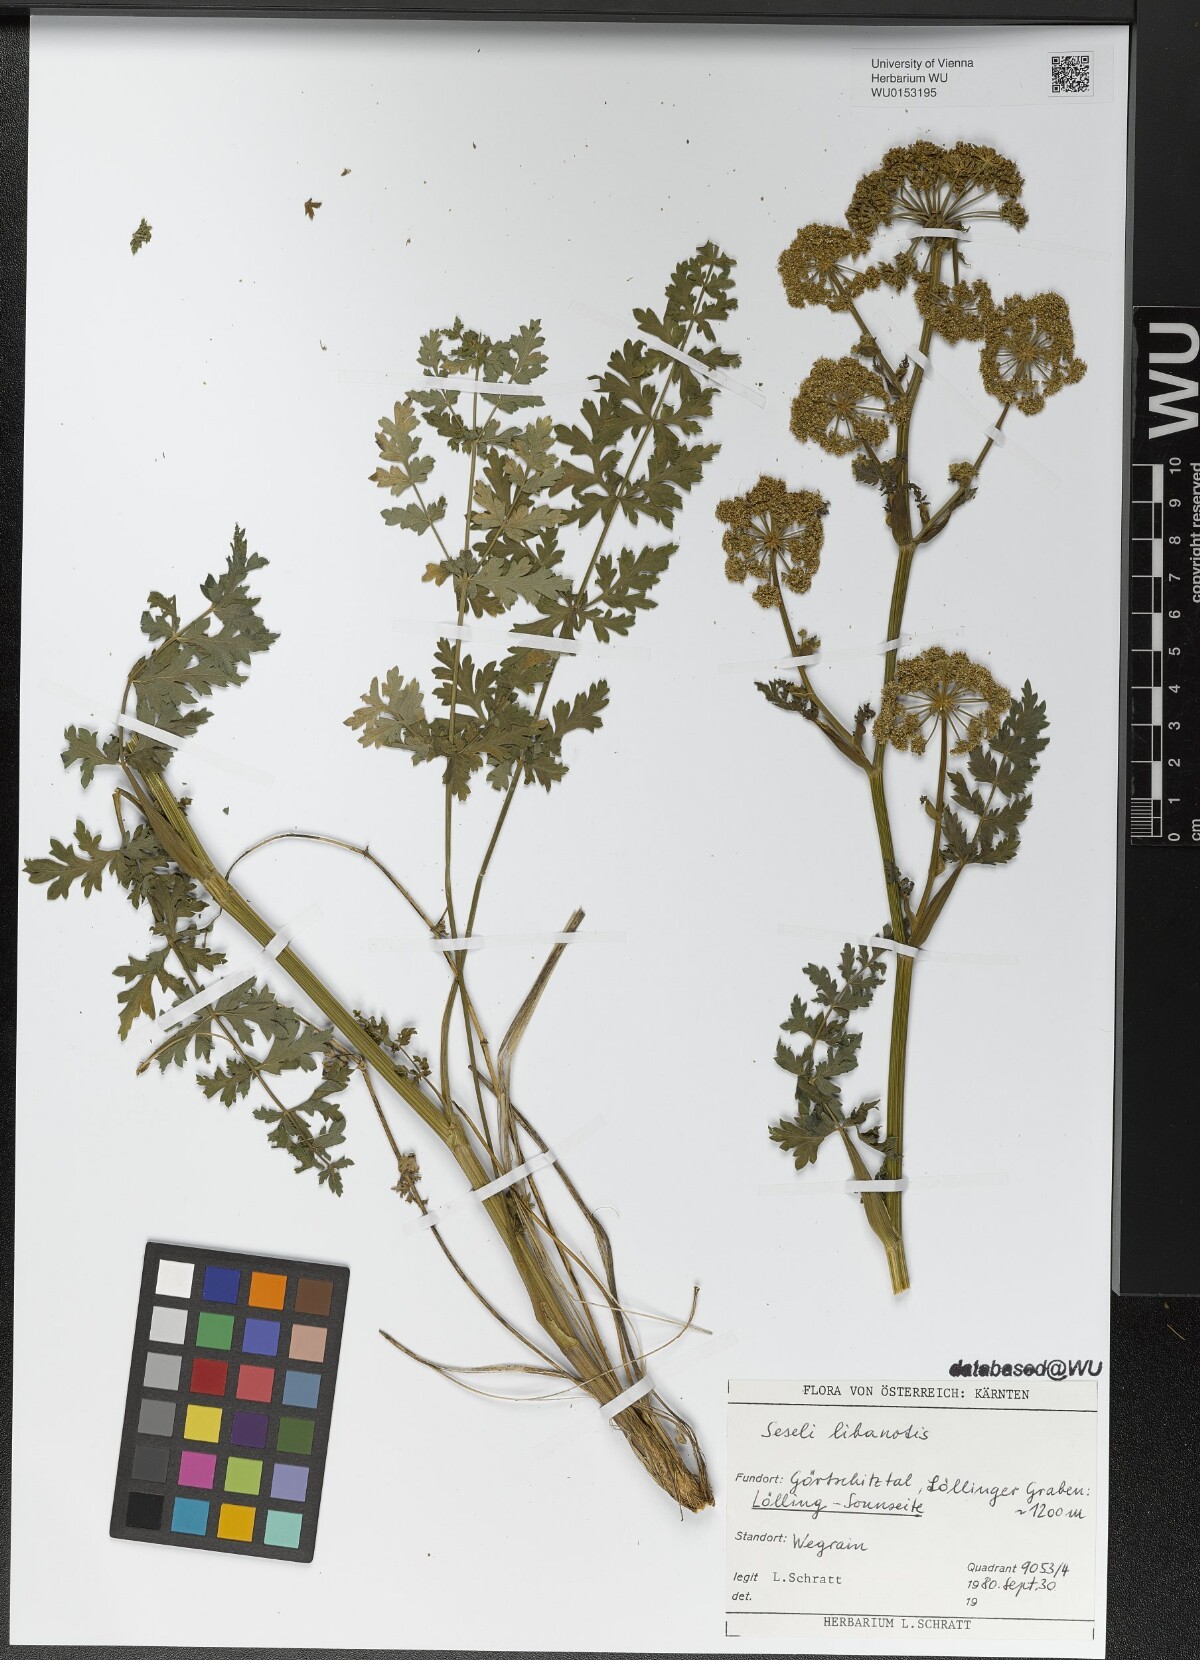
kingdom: Plantae
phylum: Tracheophyta
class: Magnoliopsida
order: Apiales
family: Apiaceae
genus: Seseli
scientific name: Seseli libanotis
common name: Mooncarrot
